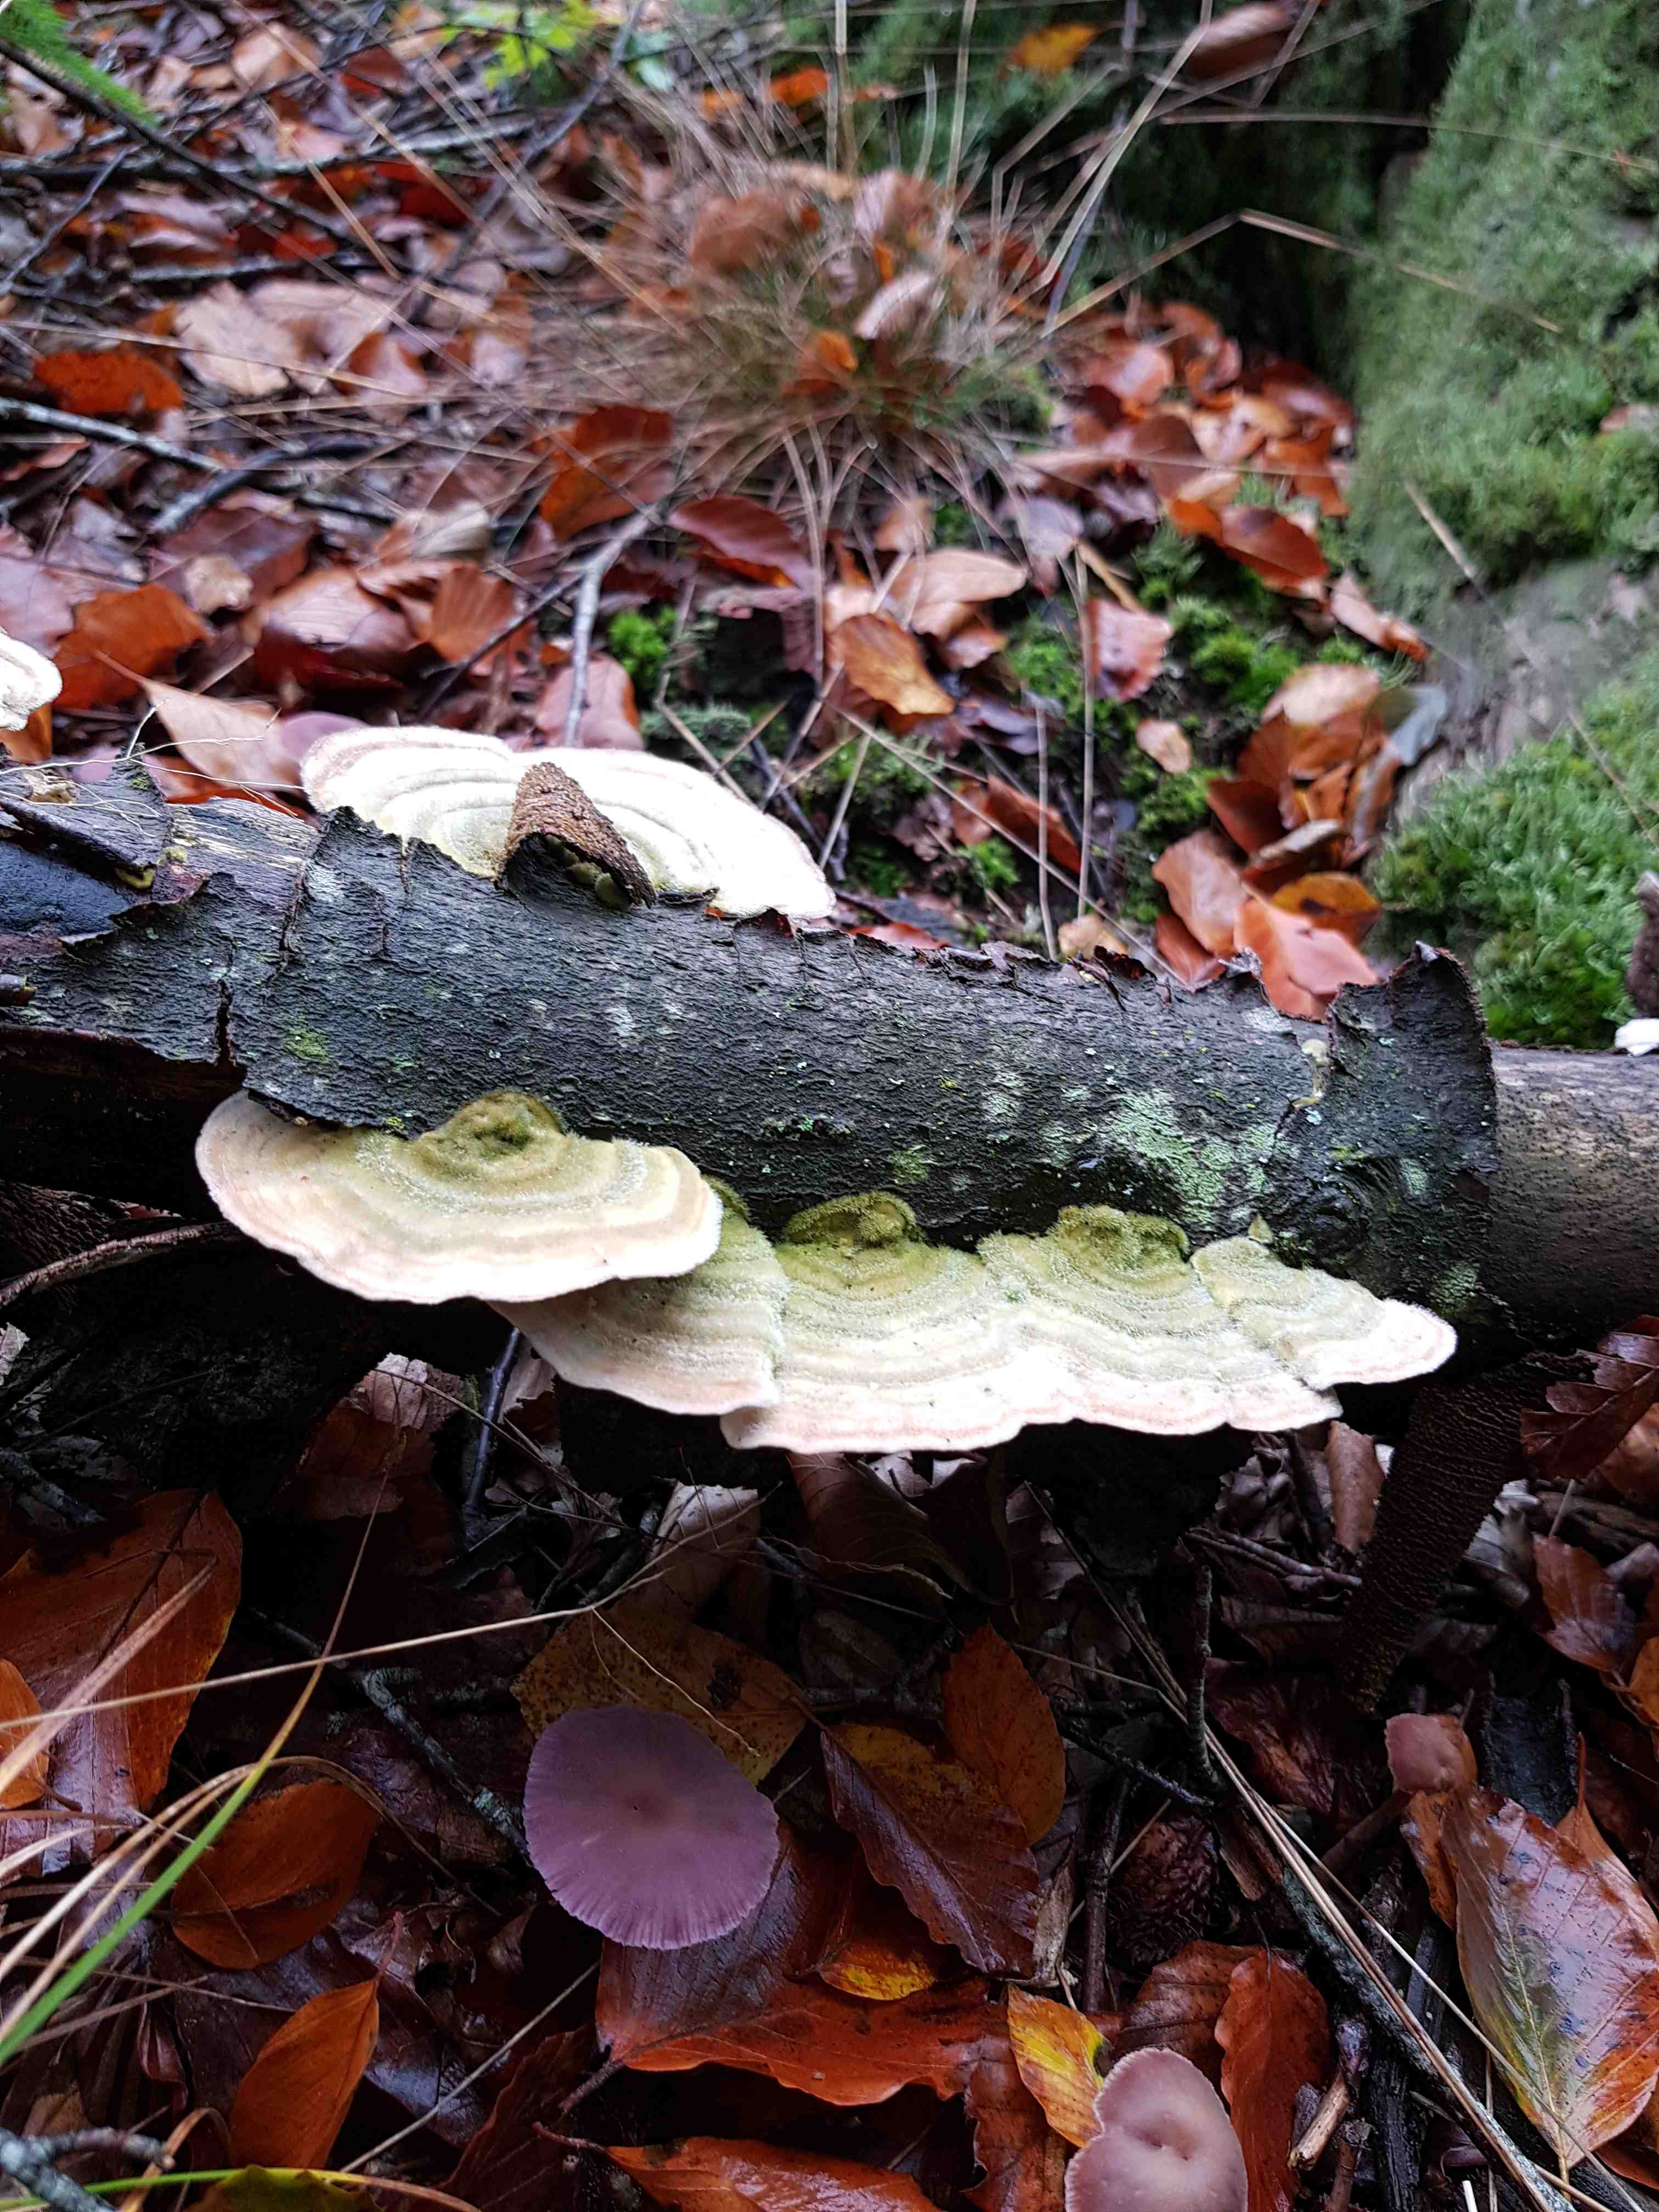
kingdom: Fungi
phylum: Basidiomycota
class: Agaricomycetes
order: Polyporales
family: Polyporaceae
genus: Trametes
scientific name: Trametes hirsuta
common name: håret læderporesvamp
